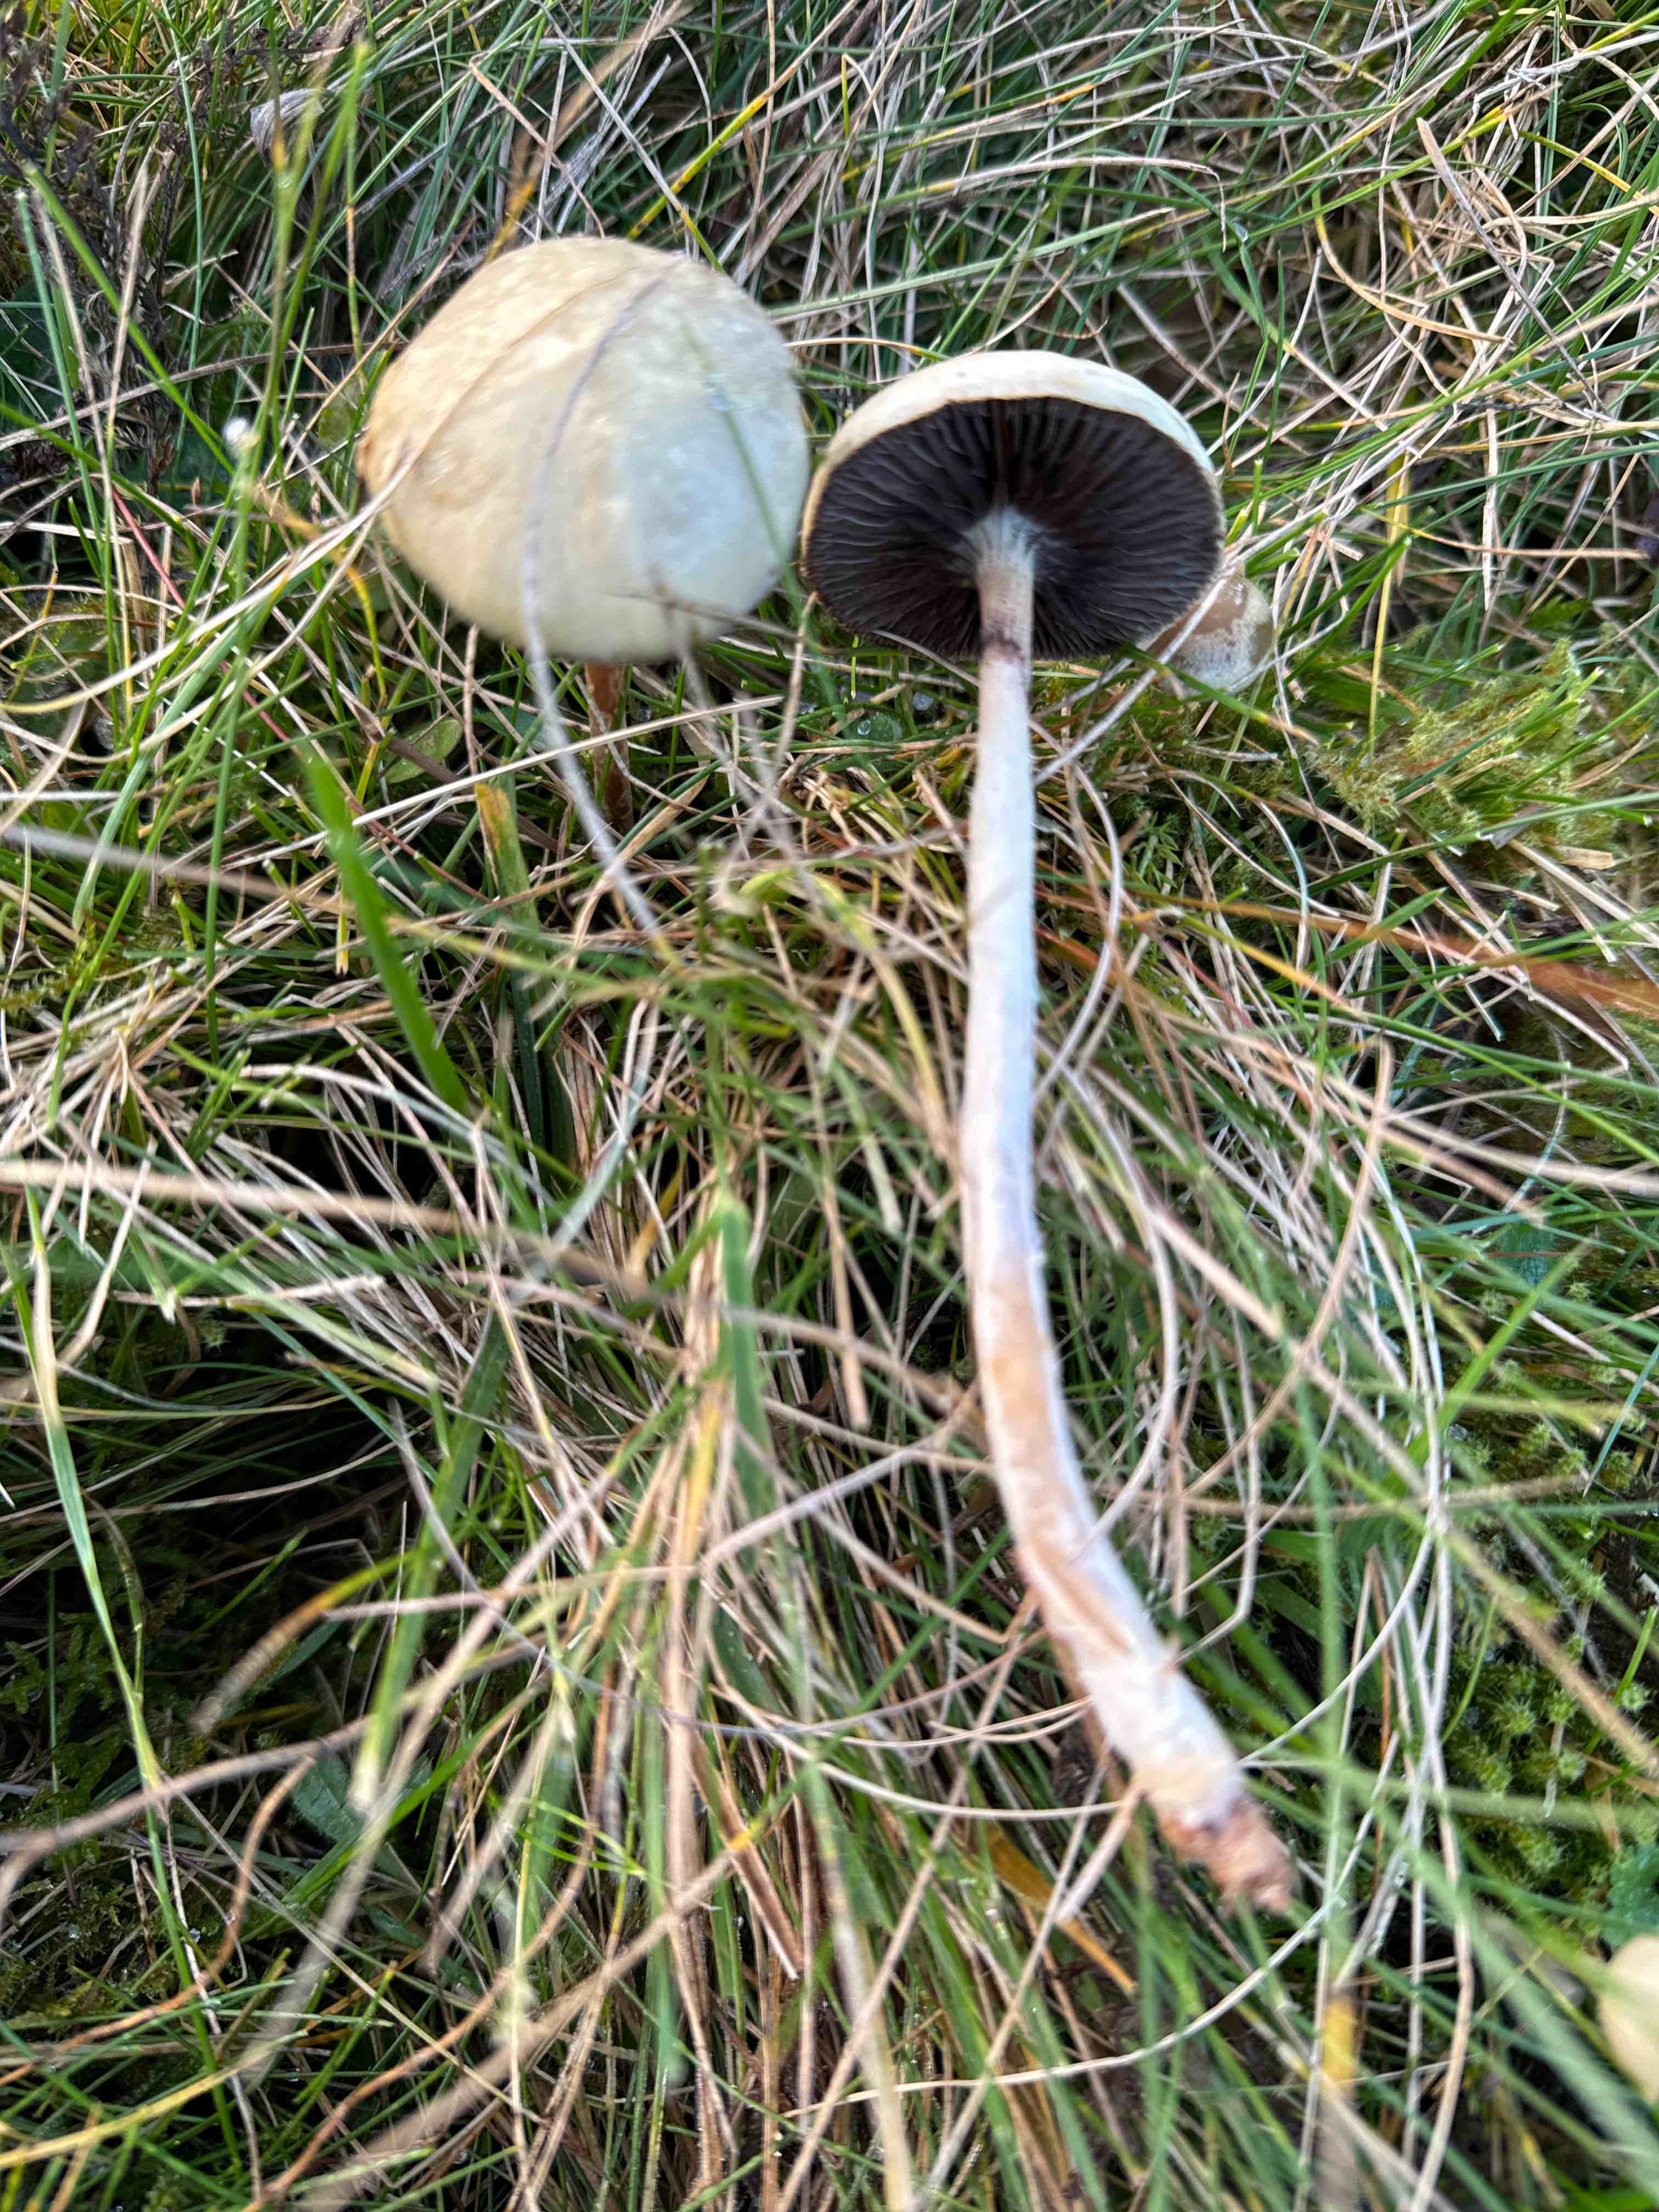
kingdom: Fungi
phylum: Basidiomycota
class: Agaricomycetes
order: Agaricales
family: Strophariaceae
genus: Protostropharia
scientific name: Protostropharia semiglobata
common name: halvkugleformet bredblad
